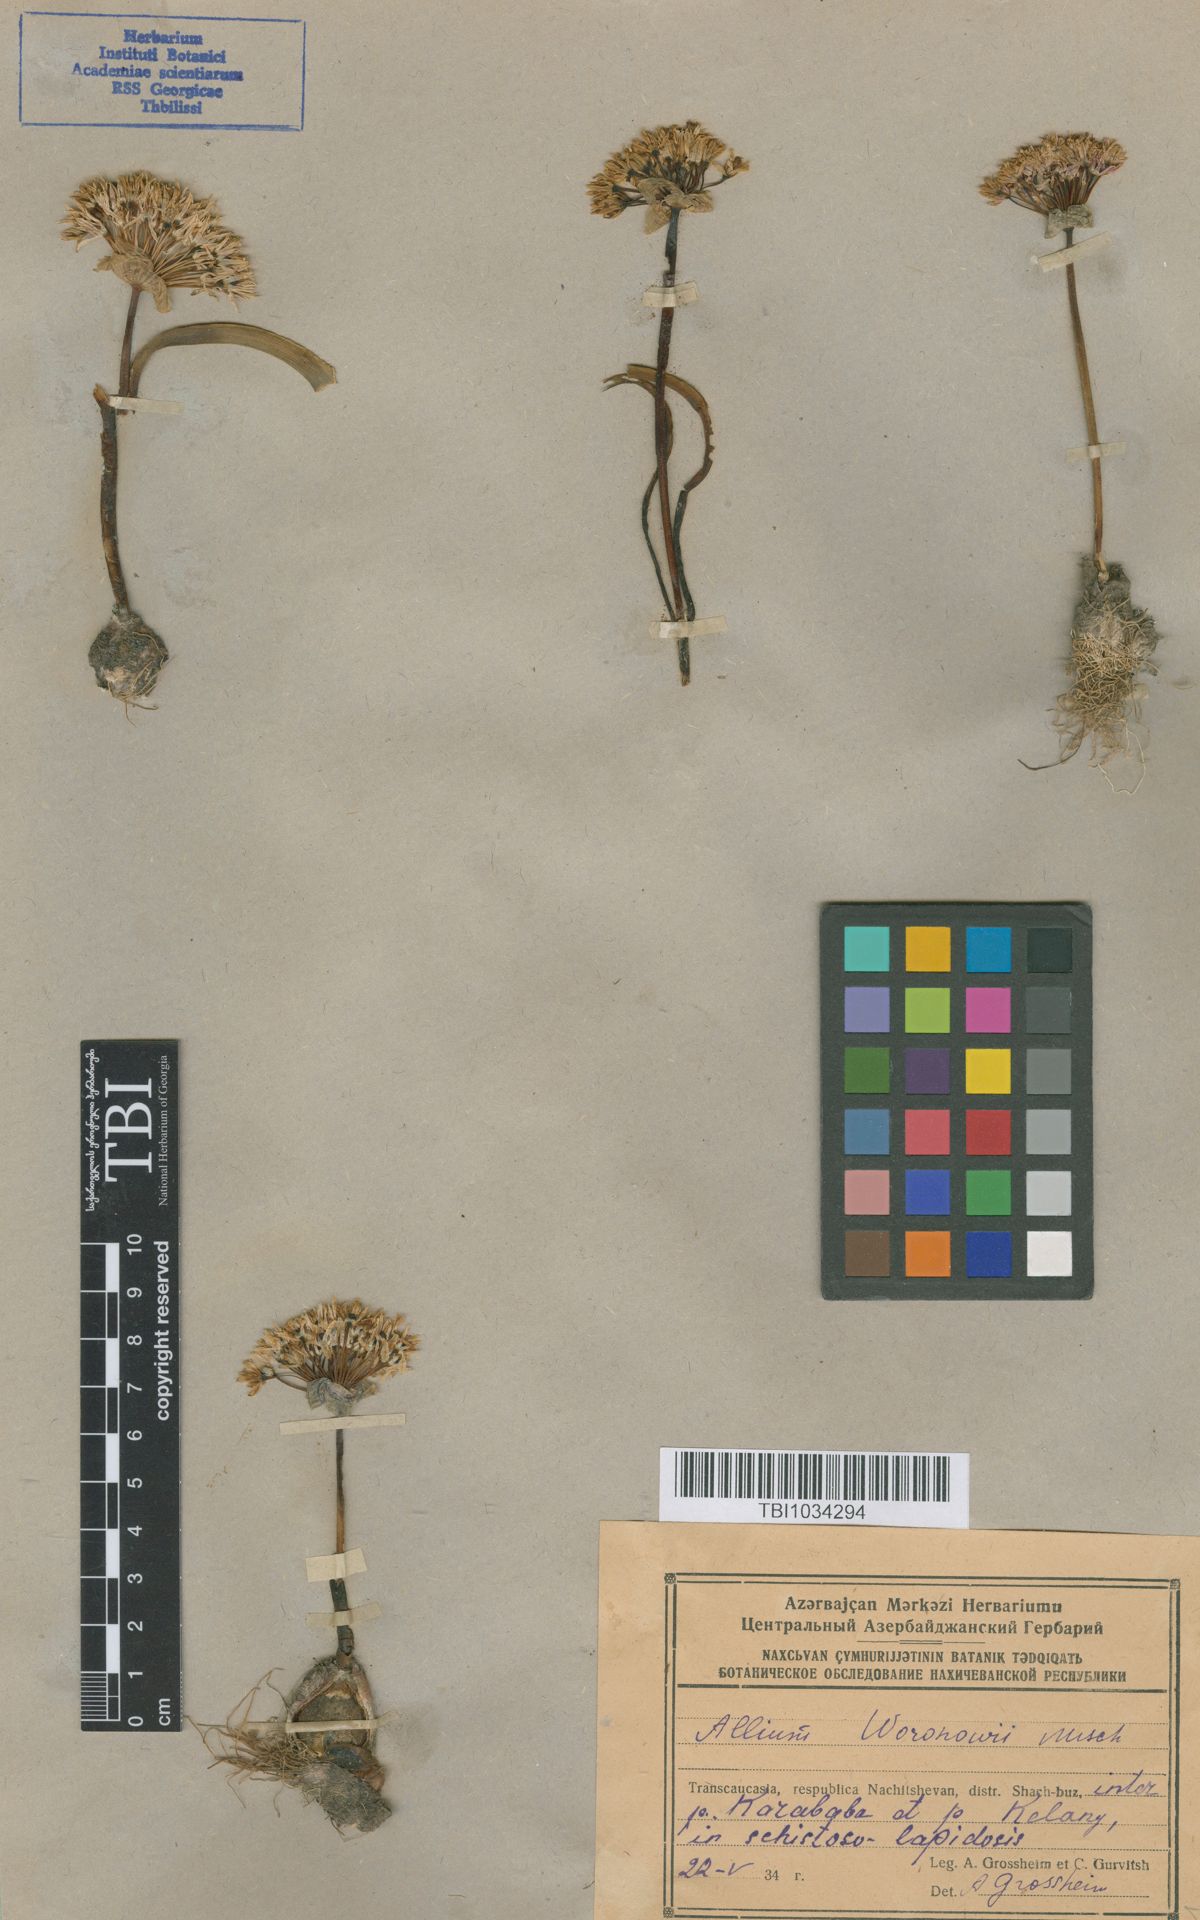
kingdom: Plantae
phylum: Tracheophyta
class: Liliopsida
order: Asparagales
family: Amaryllidaceae
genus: Allium
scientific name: Allium woronowii
